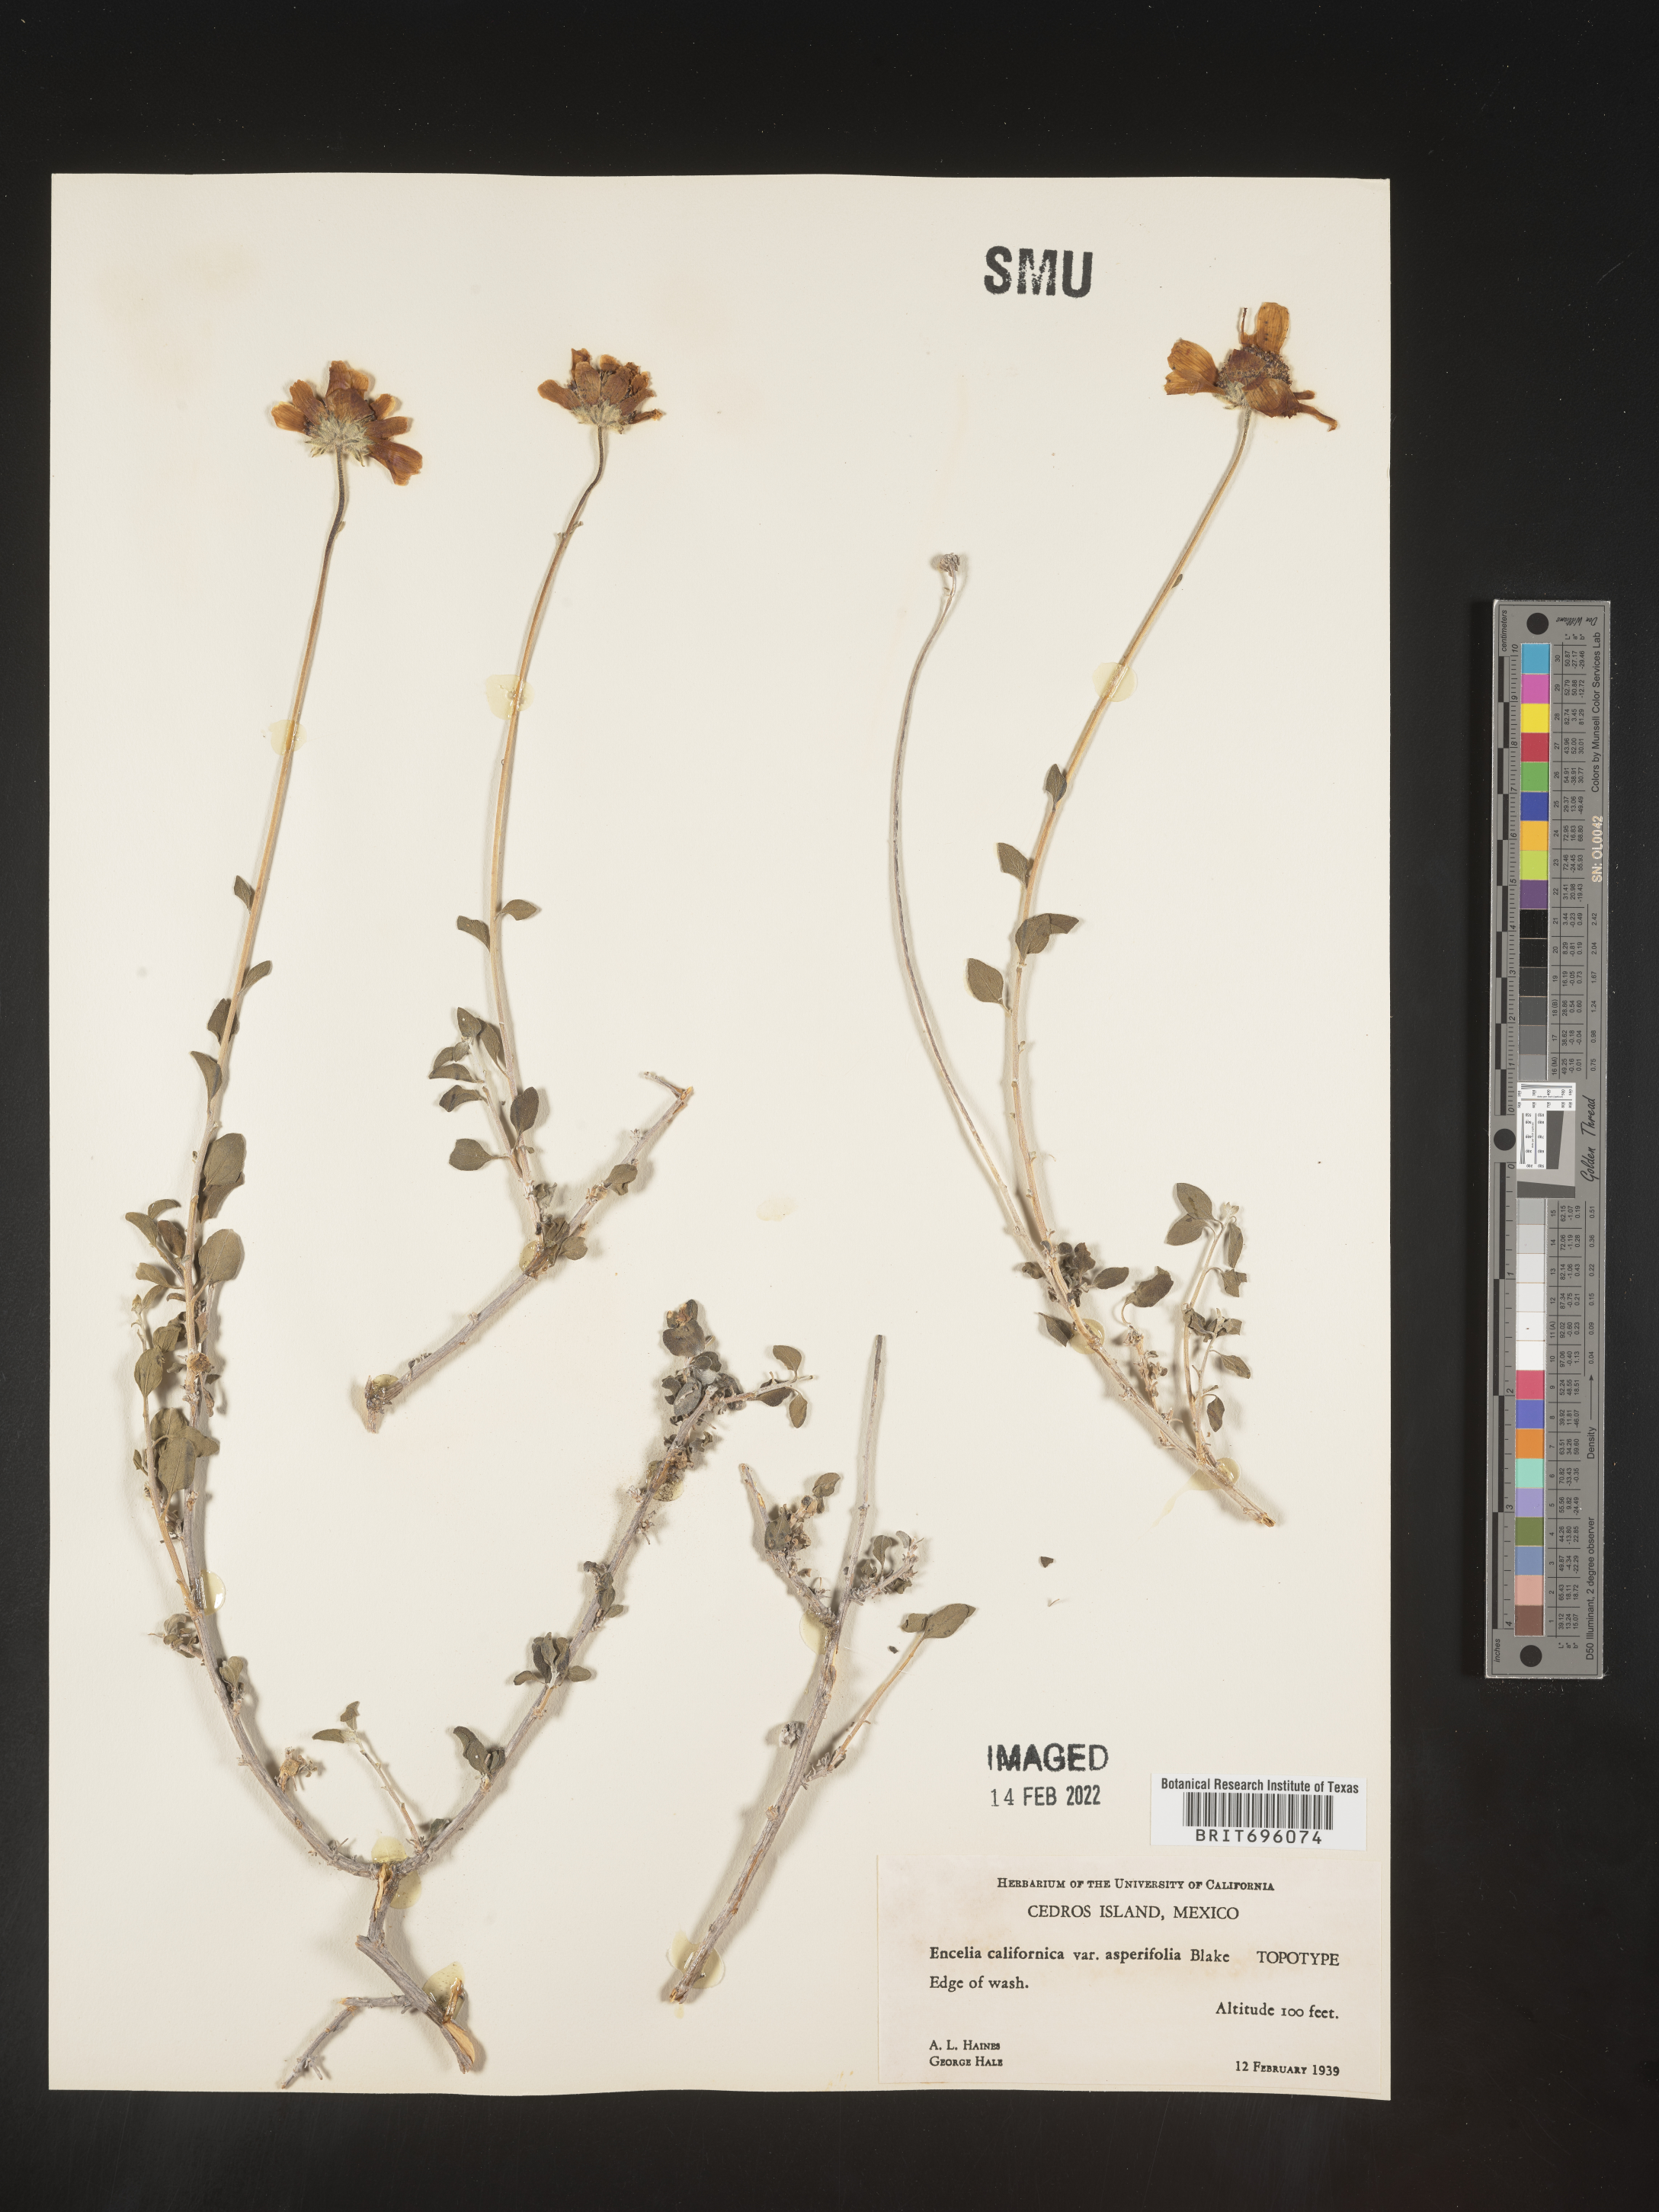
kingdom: Plantae
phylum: Tracheophyta
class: Magnoliopsida
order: Asterales
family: Asteraceae
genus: Encelia
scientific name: Encelia
